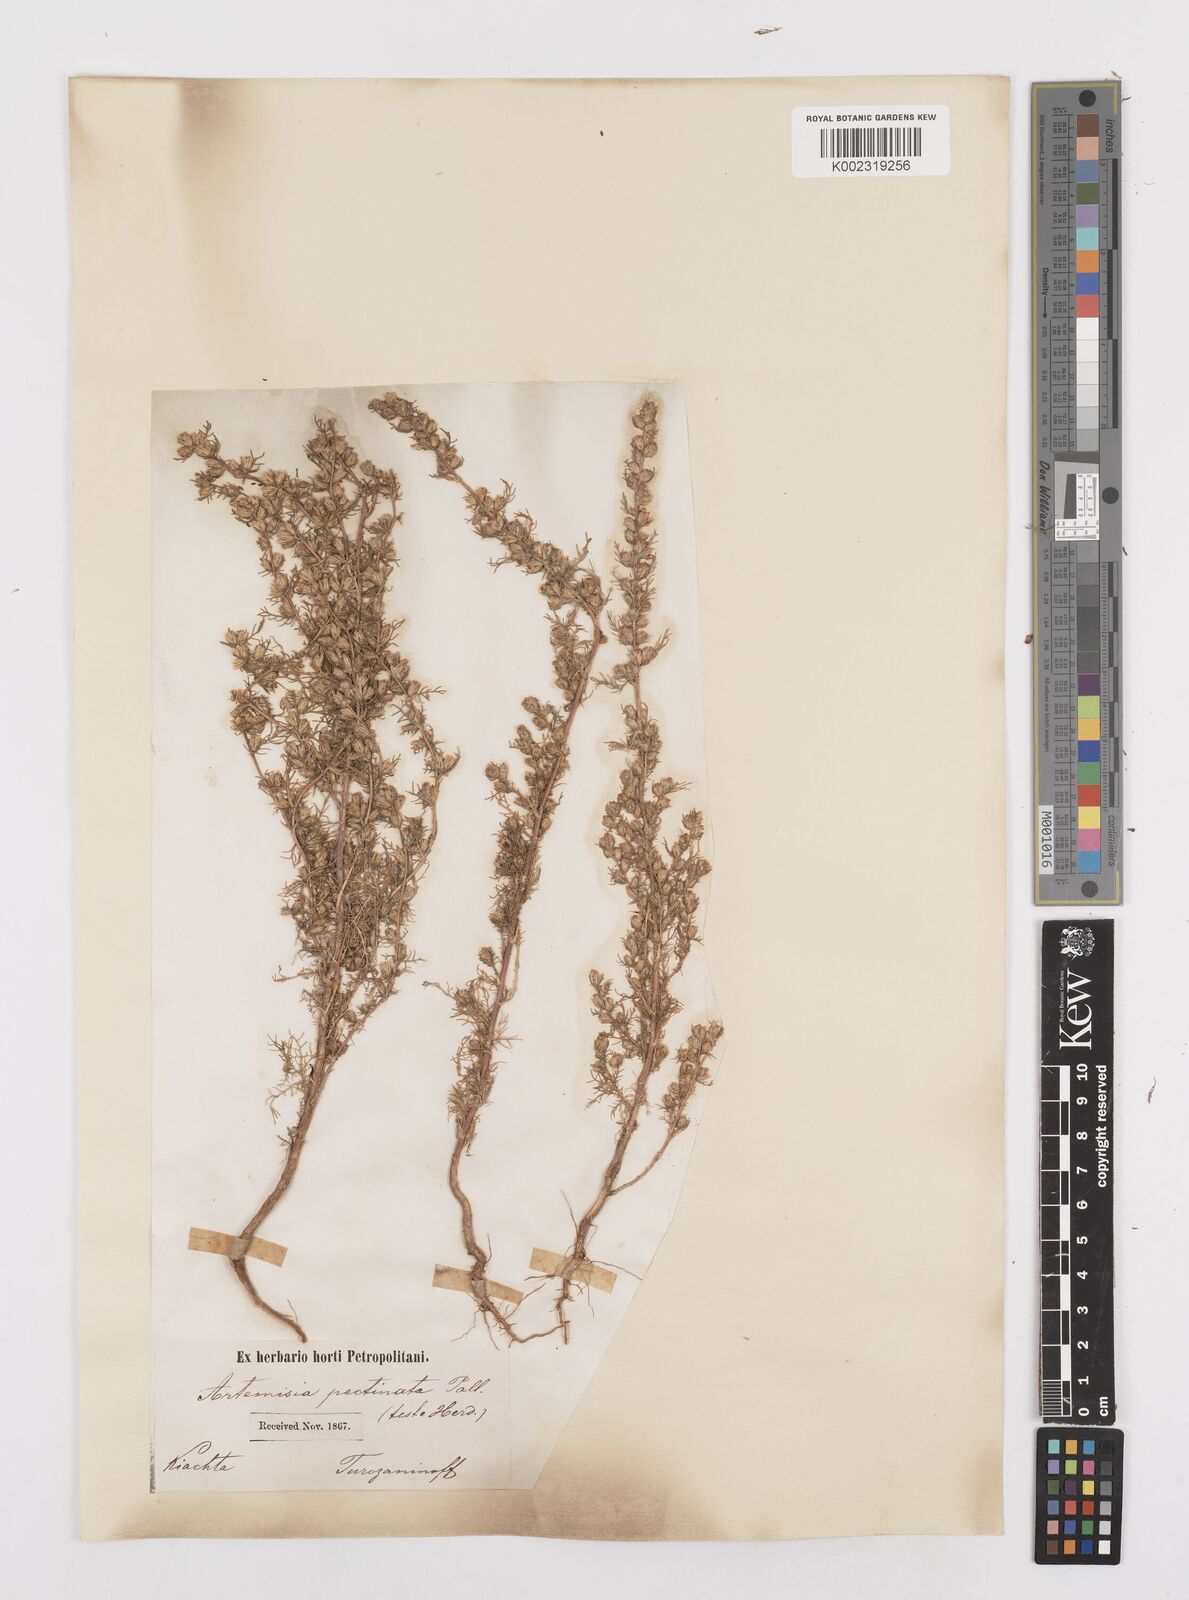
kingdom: Plantae
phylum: Tracheophyta
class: Magnoliopsida
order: Asterales
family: Asteraceae
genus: Neopallasia
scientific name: Neopallasia pectinata
